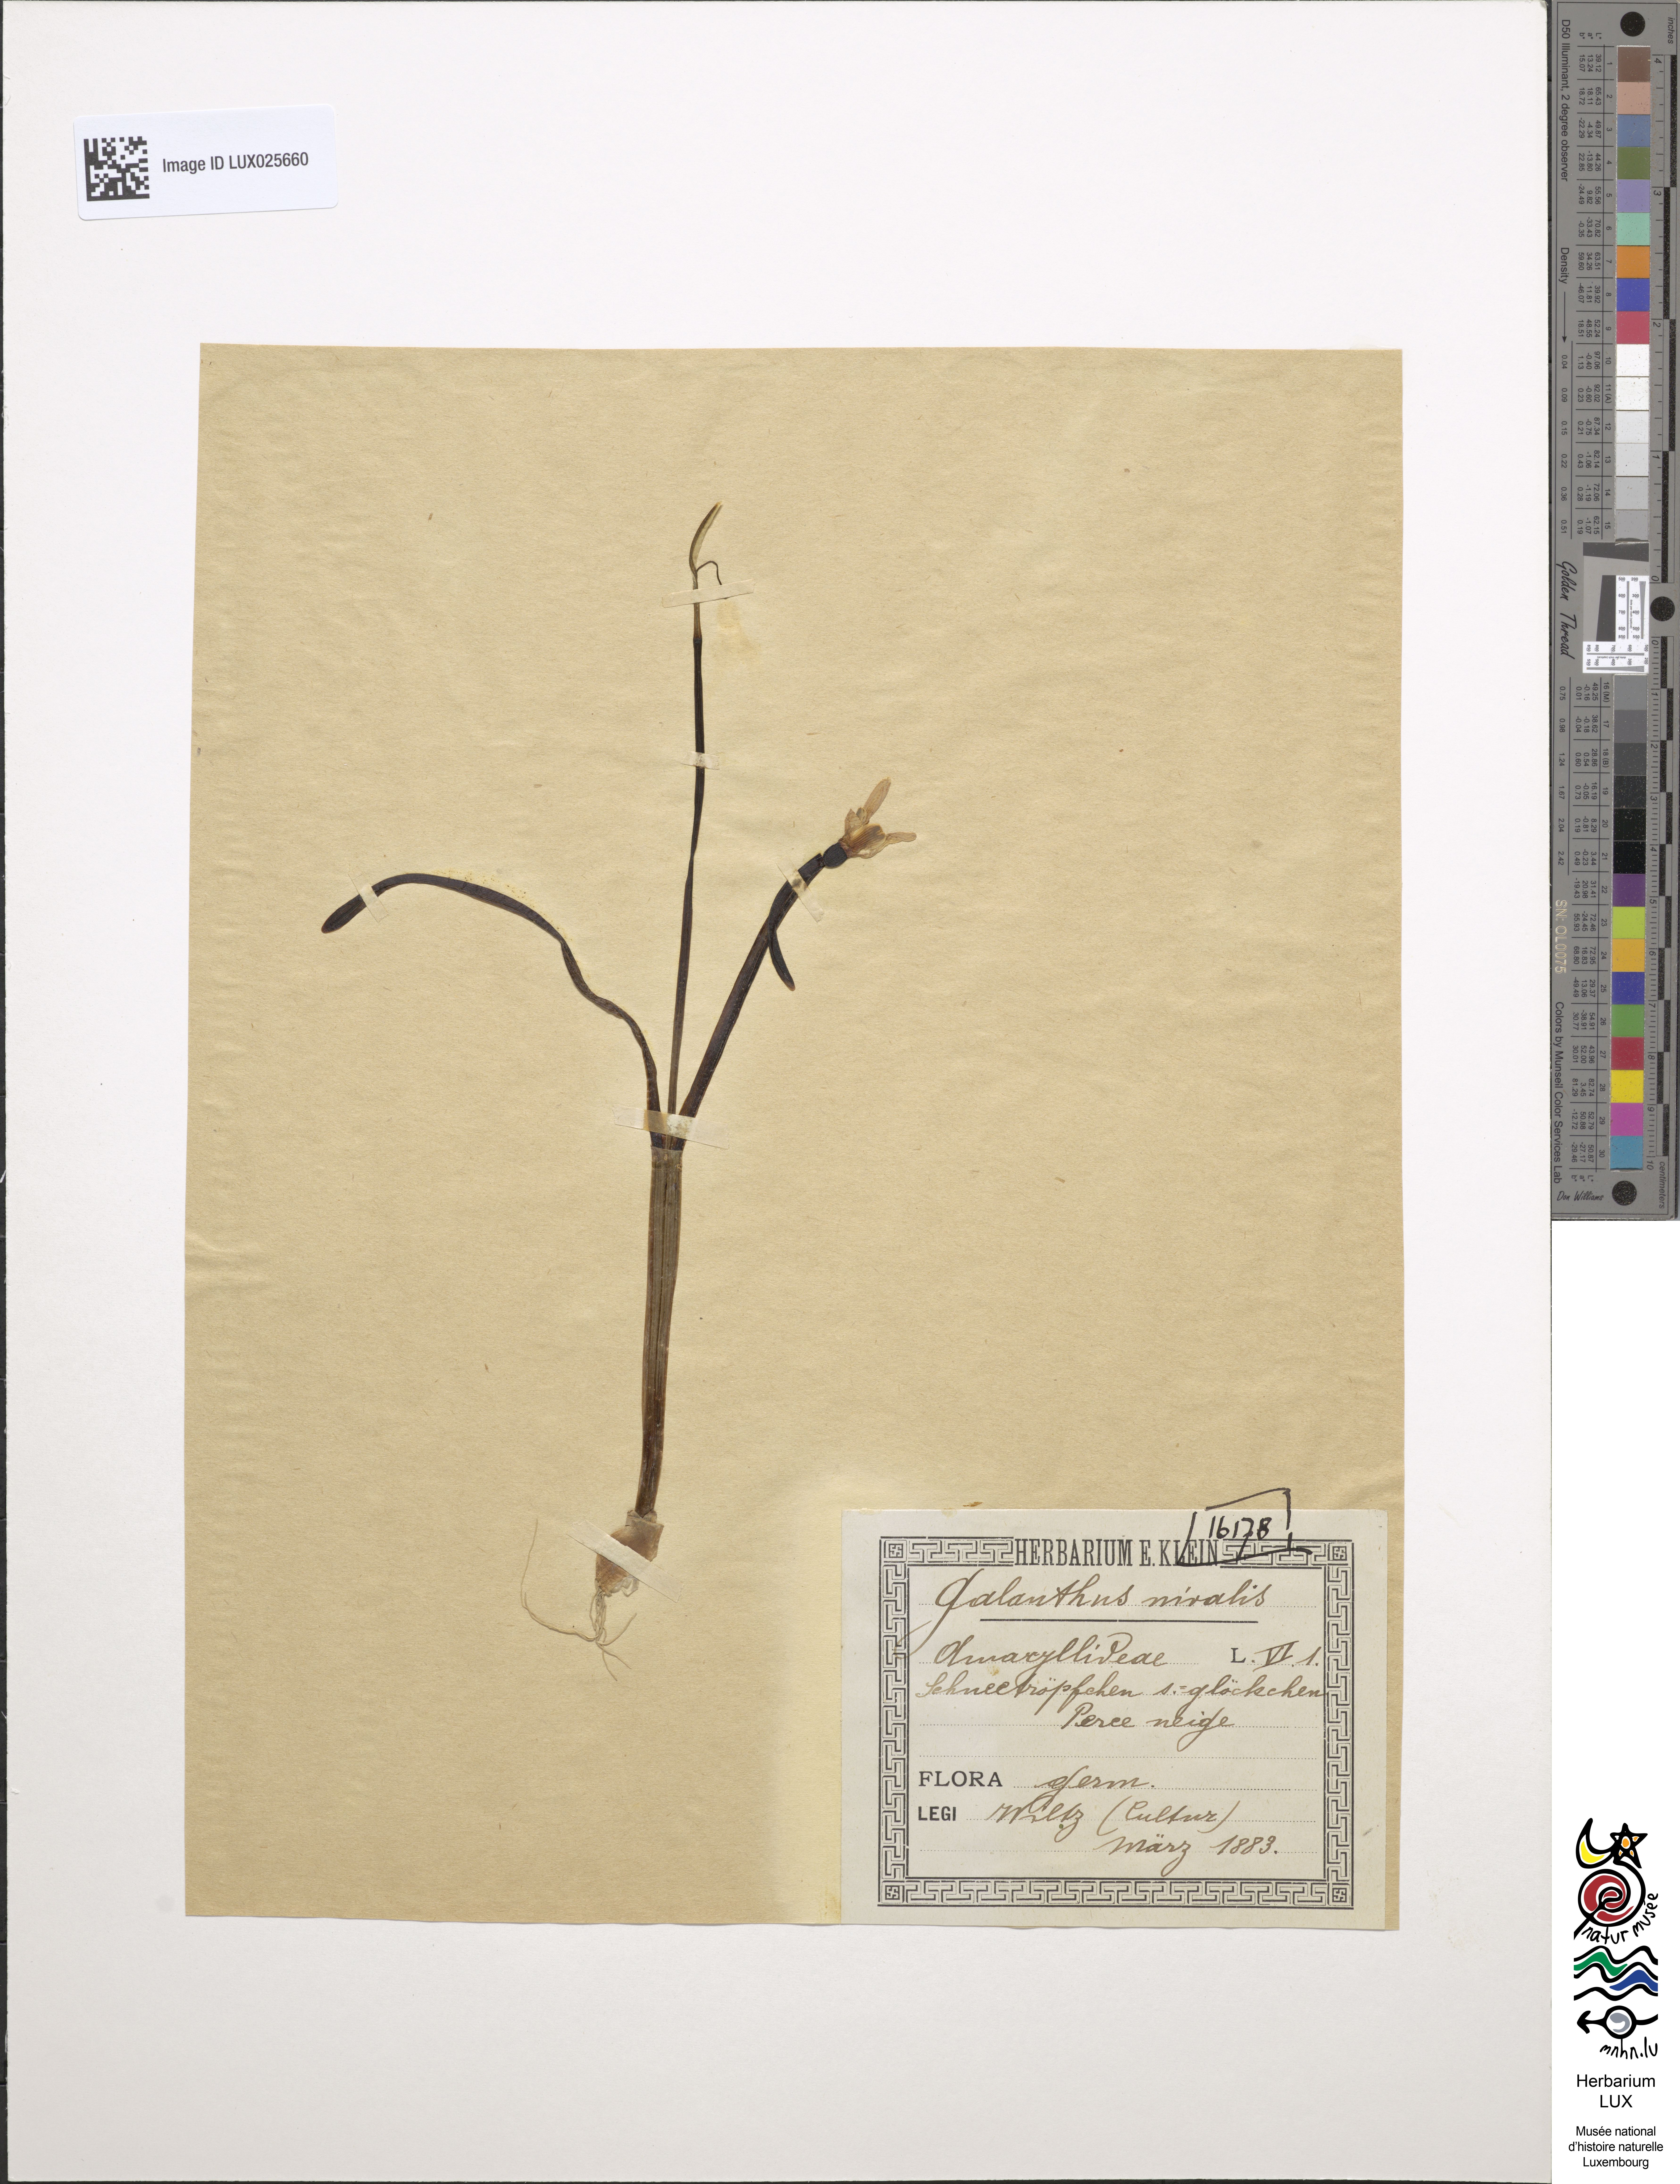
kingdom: Plantae
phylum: Tracheophyta
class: Liliopsida
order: Asparagales
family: Amaryllidaceae
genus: Galanthus
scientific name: Galanthus nivalis
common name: Snowdrop
